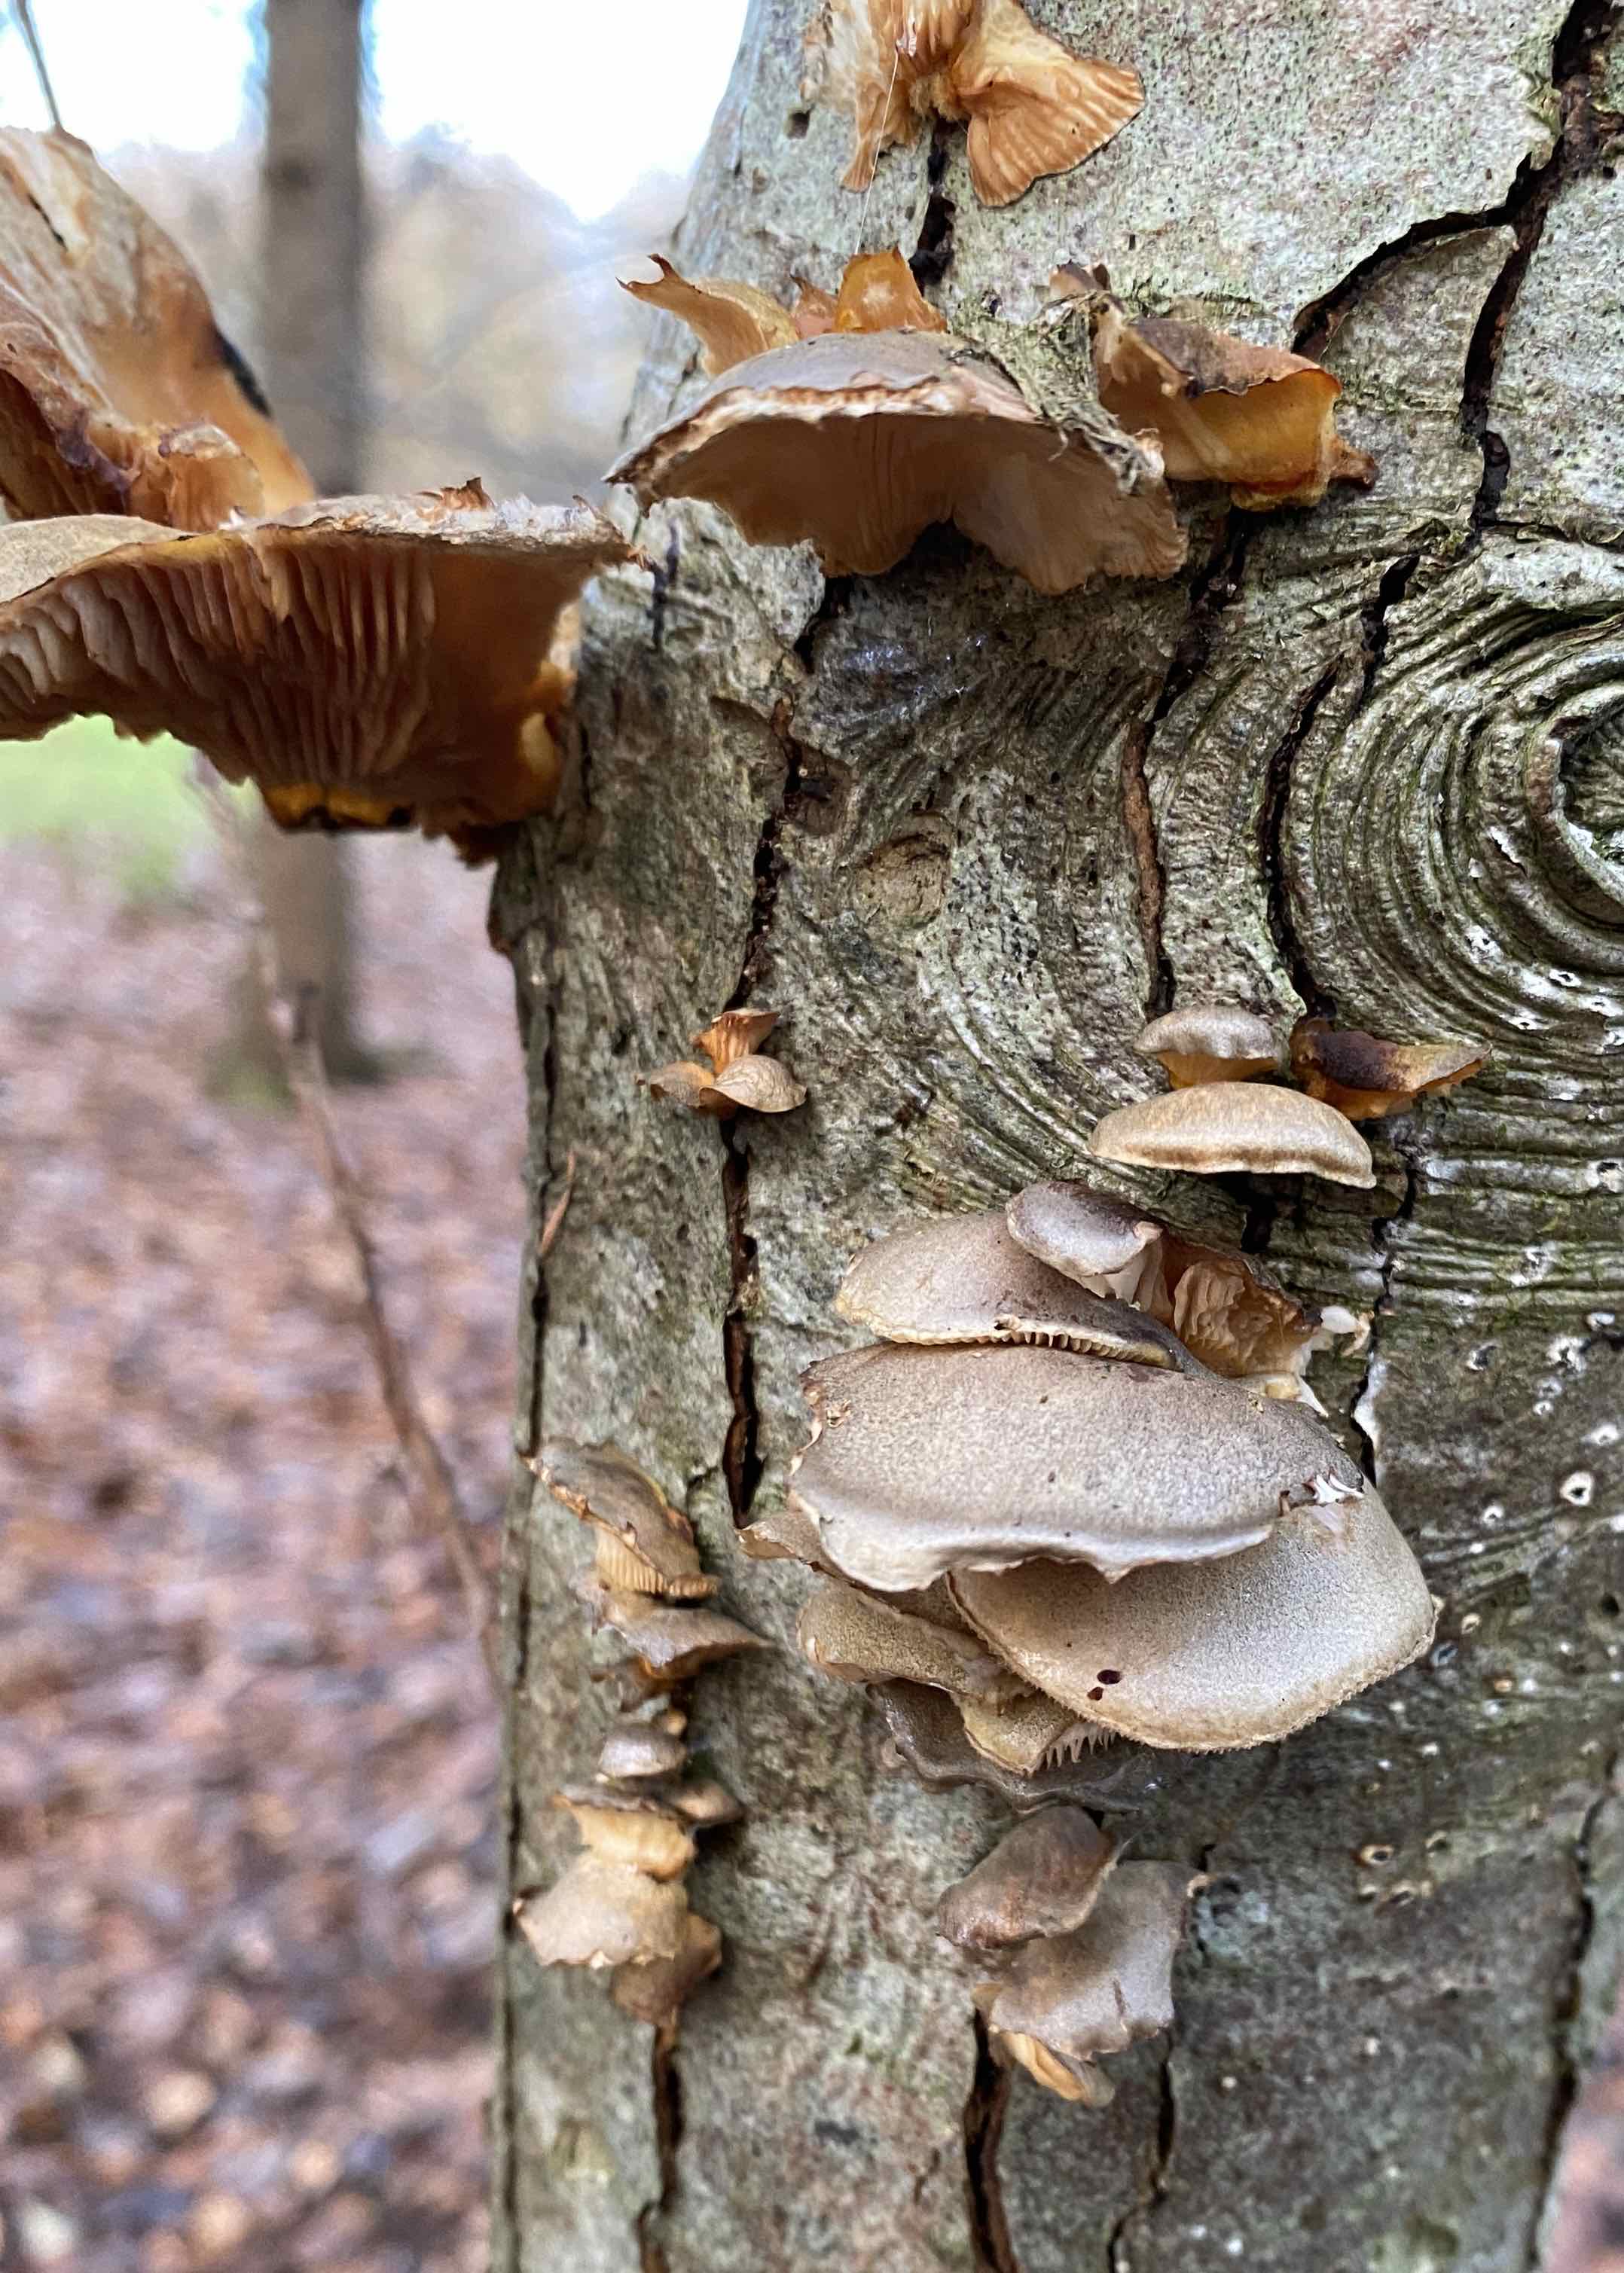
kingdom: Fungi
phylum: Basidiomycota
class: Agaricomycetes
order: Agaricales
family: Sarcomyxaceae
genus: Sarcomyxa
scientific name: Sarcomyxa serotina
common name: gummihat
